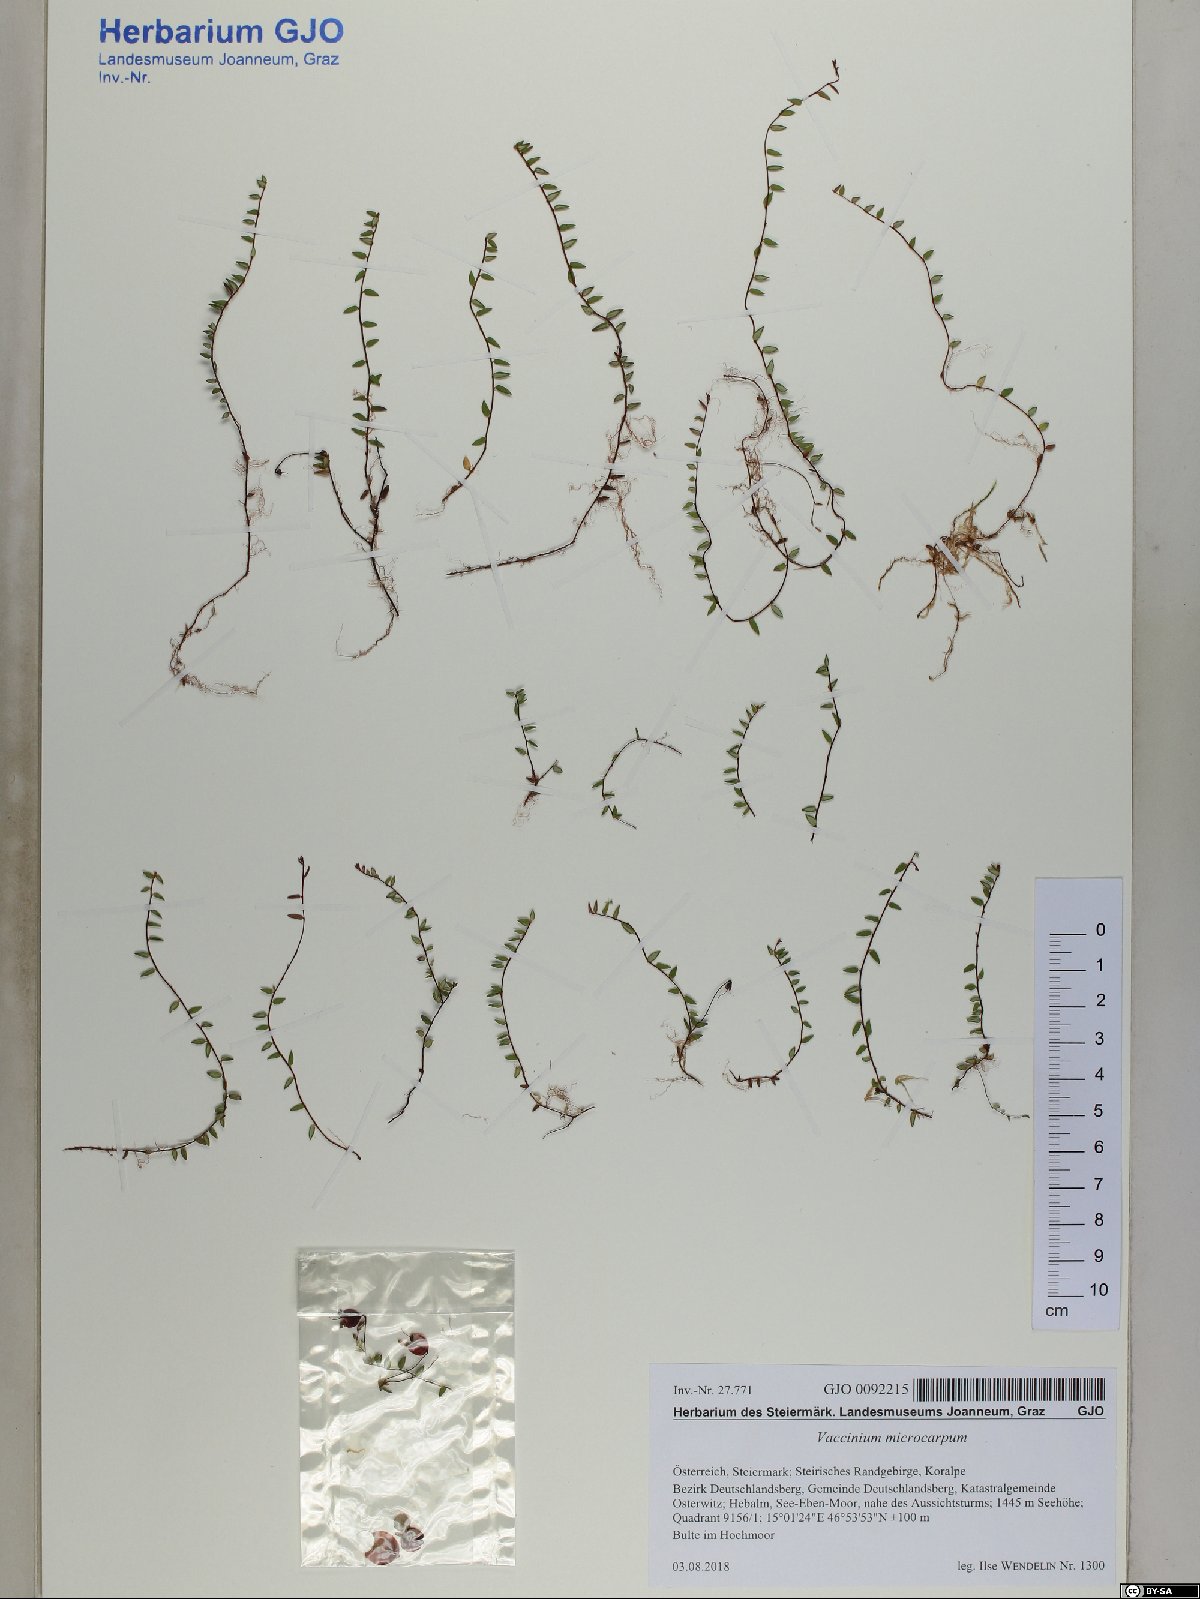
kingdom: Plantae
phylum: Tracheophyta
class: Magnoliopsida
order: Ericales
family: Ericaceae
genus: Vaccinium
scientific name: Vaccinium microcarpum
